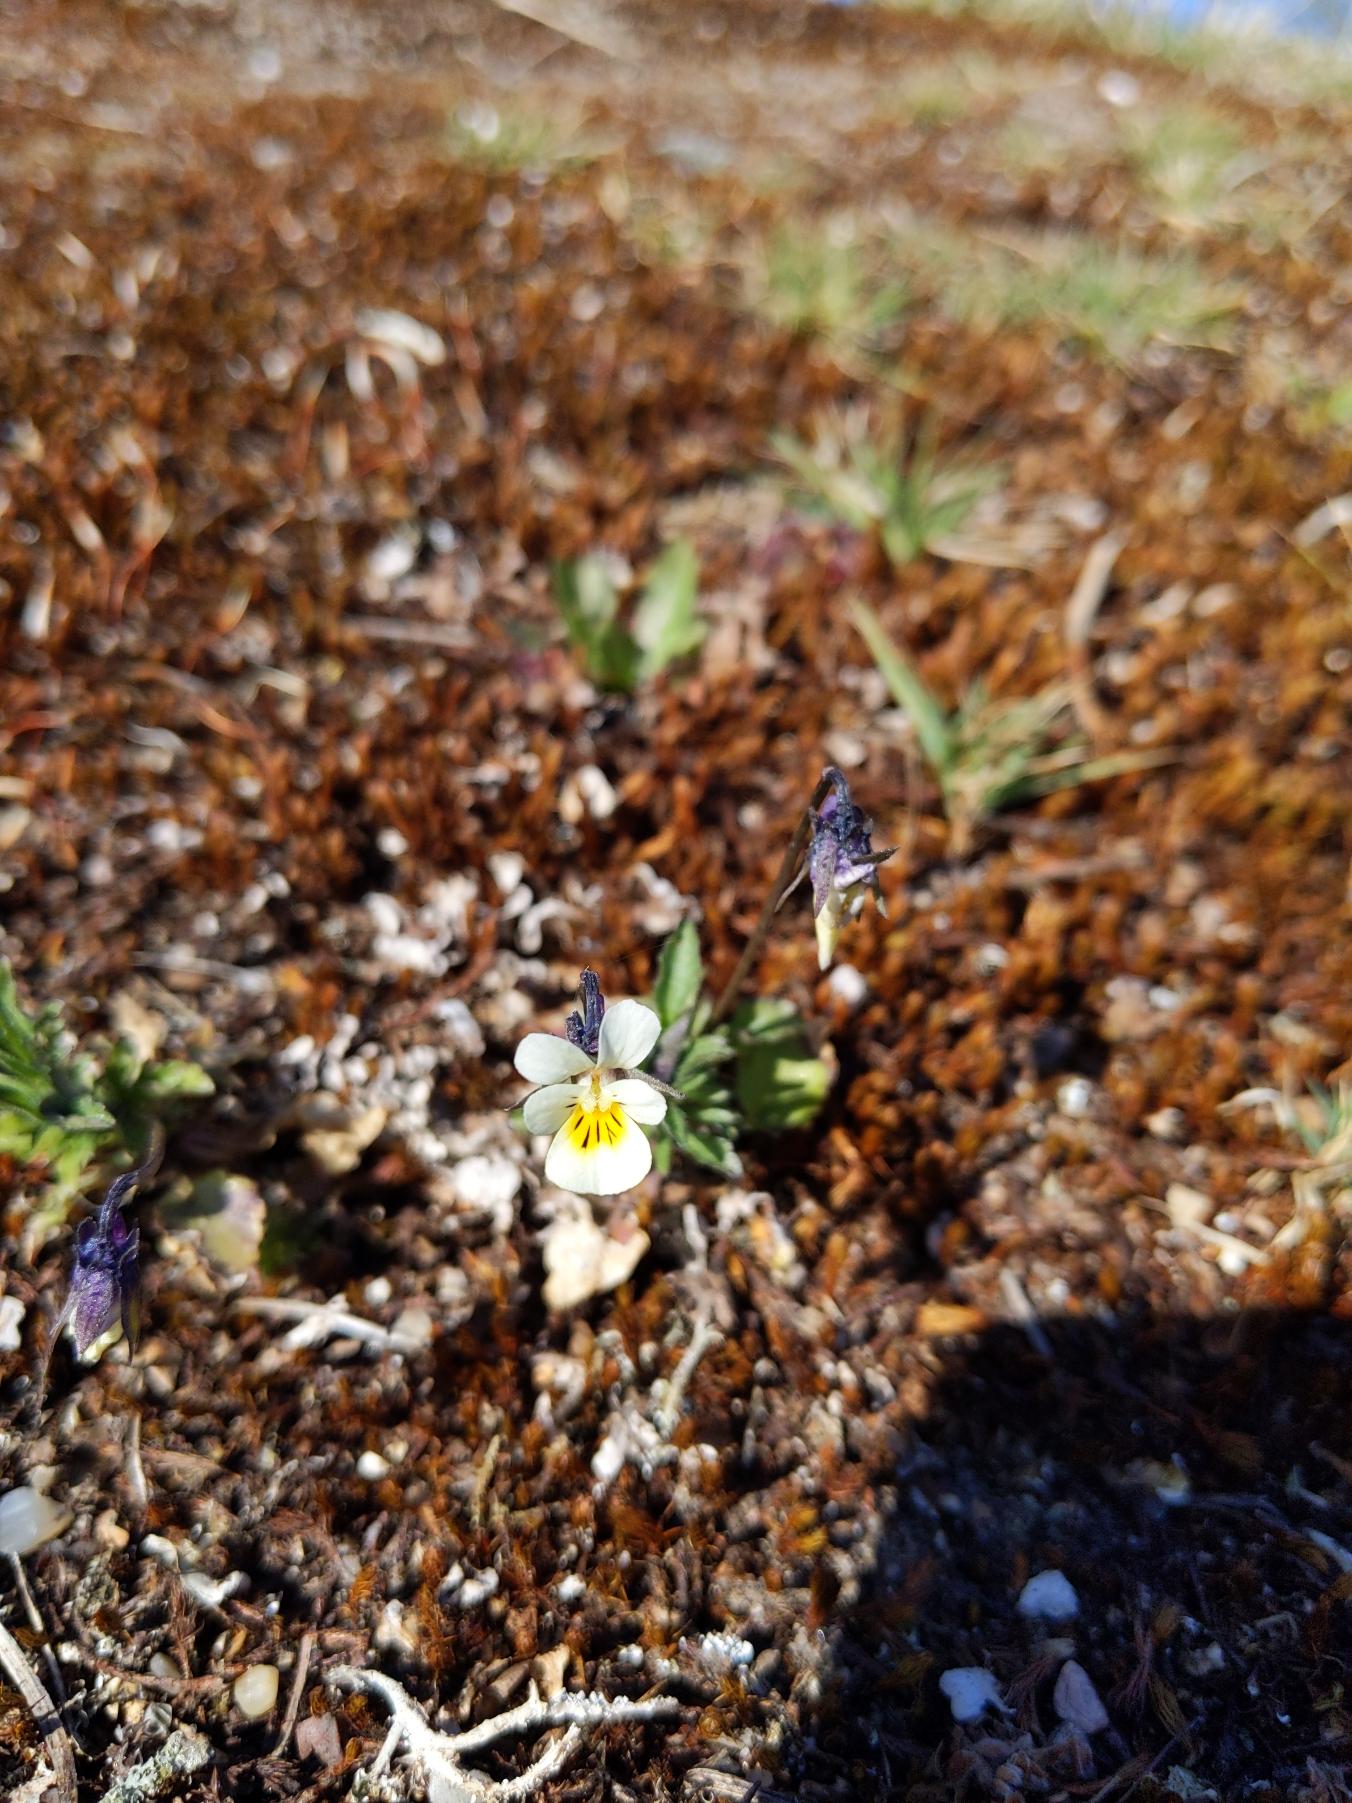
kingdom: Plantae
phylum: Tracheophyta
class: Magnoliopsida
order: Malpighiales
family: Violaceae
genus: Viola
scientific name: Viola arvensis
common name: Ager-stedmoderblomst
